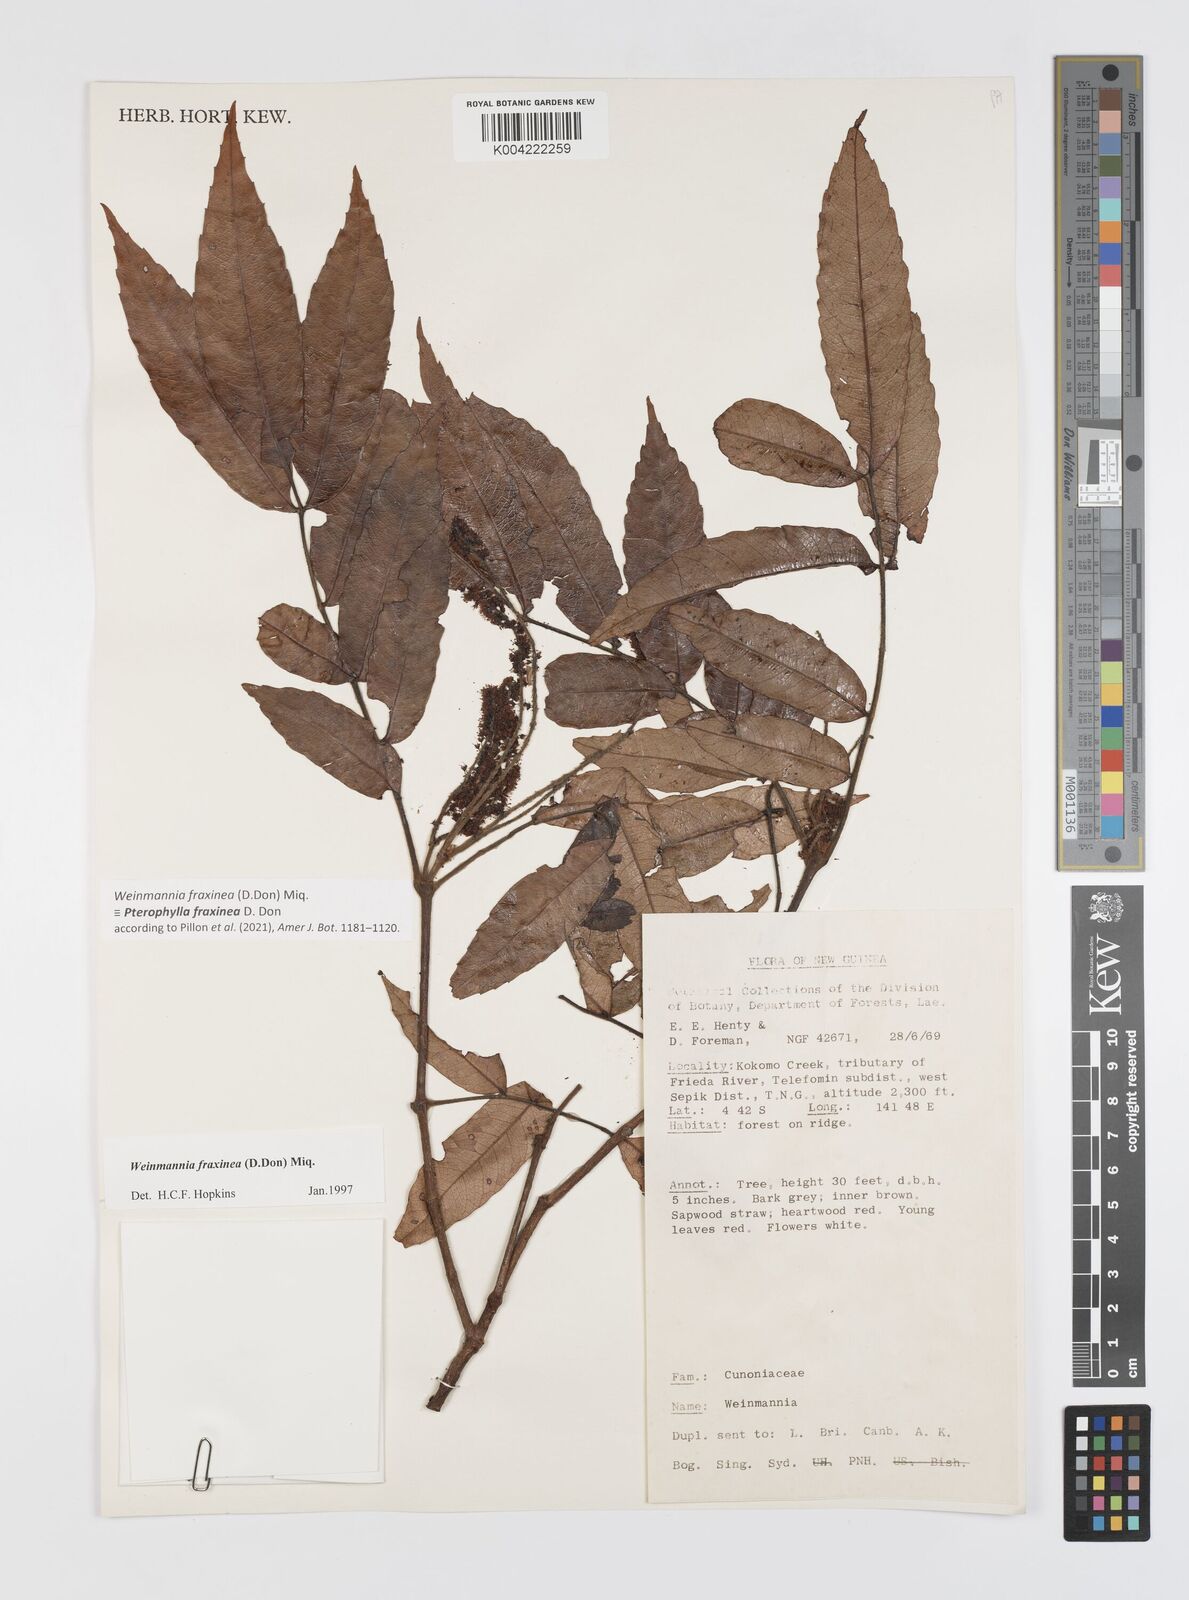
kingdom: Plantae
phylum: Tracheophyta
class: Magnoliopsida
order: Oxalidales
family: Cunoniaceae
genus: Pterophylla
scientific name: Pterophylla fraxinea
